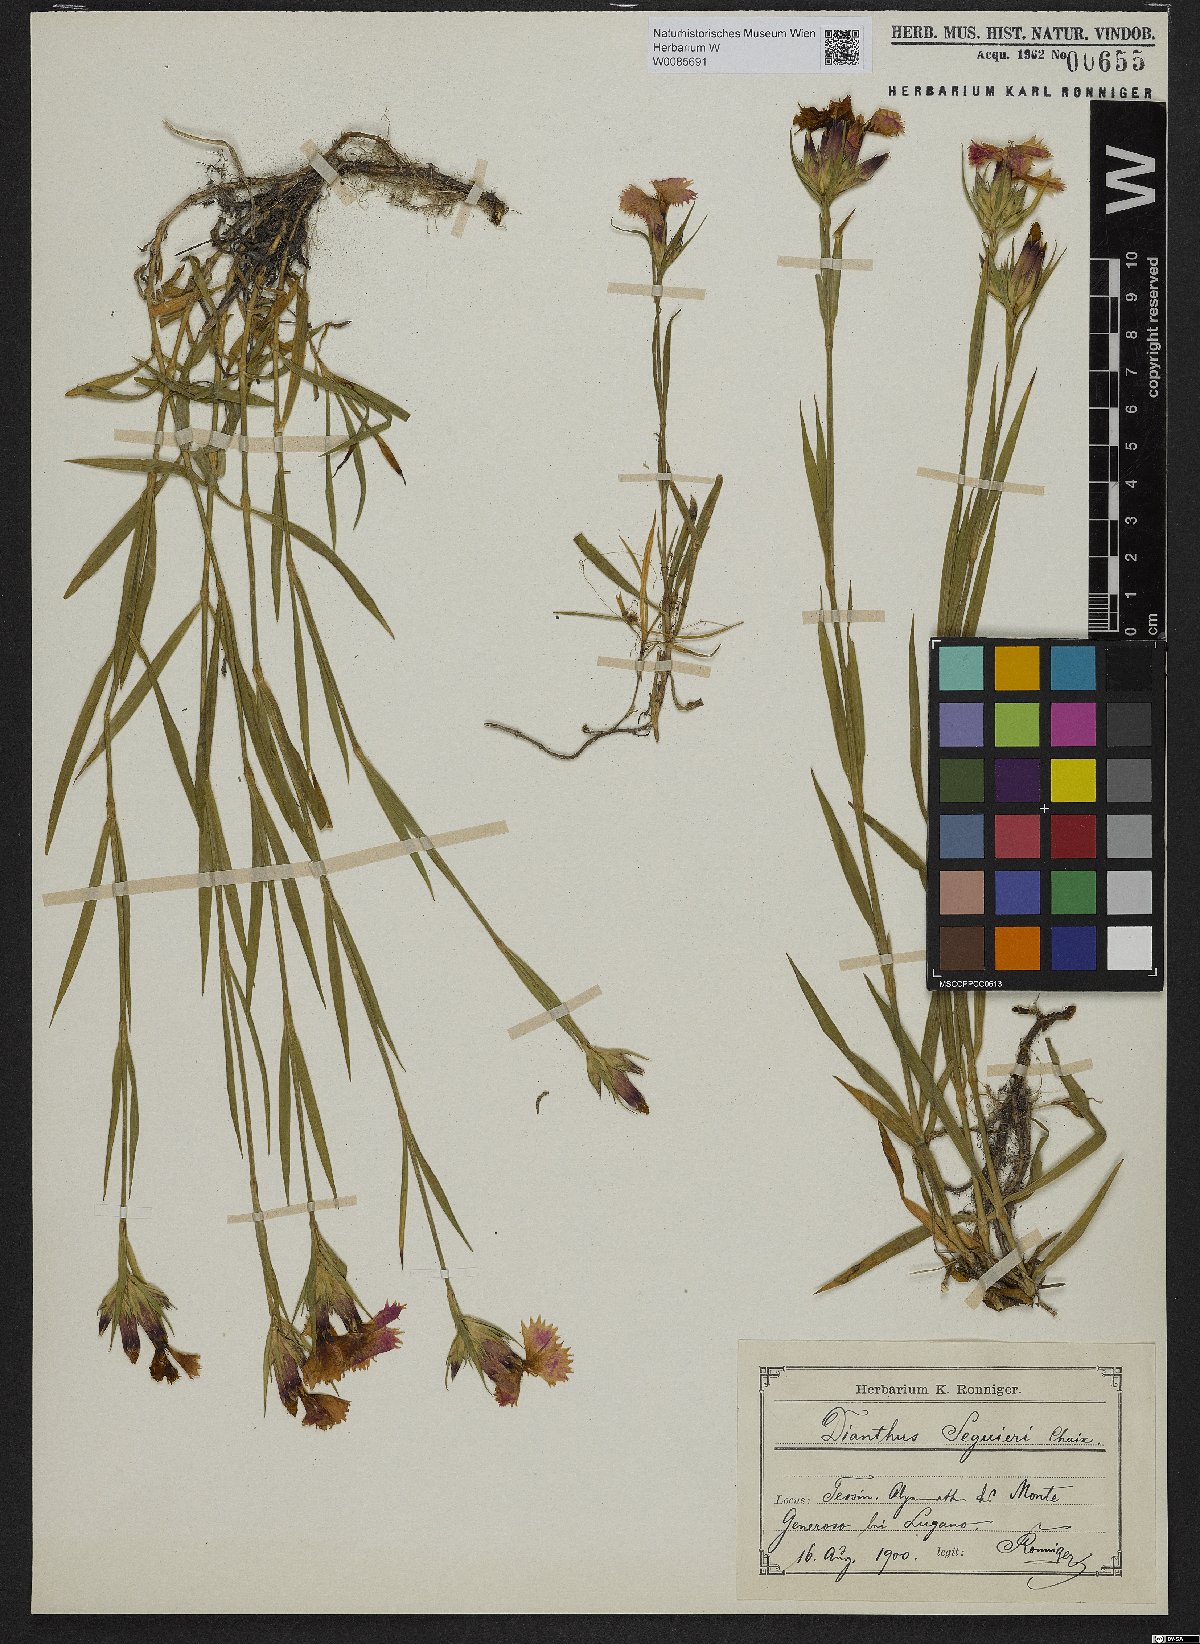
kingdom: Plantae
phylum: Tracheophyta
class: Magnoliopsida
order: Caryophyllales
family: Caryophyllaceae
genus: Dianthus
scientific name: Dianthus seguieri
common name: Ragged pink
